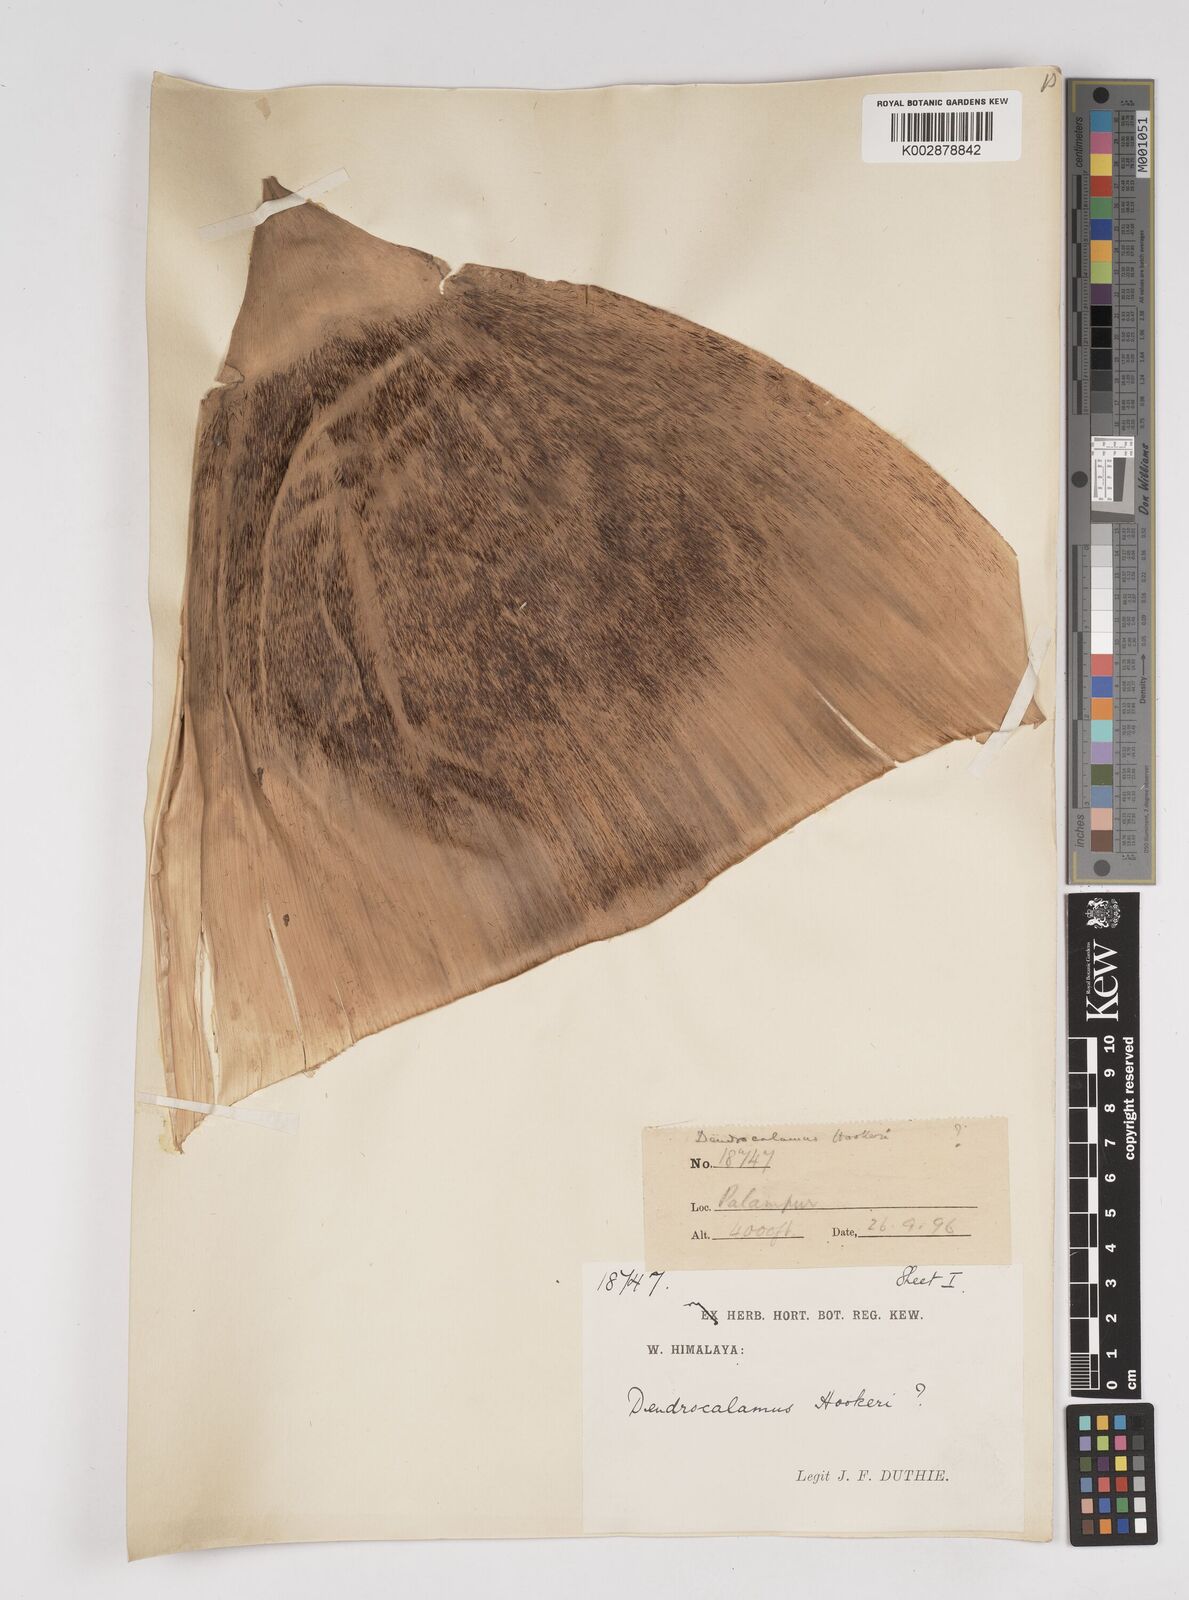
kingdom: Plantae
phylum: Tracheophyta
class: Liliopsida
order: Poales
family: Poaceae
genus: Dendrocalamus
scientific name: Dendrocalamus hookeri
